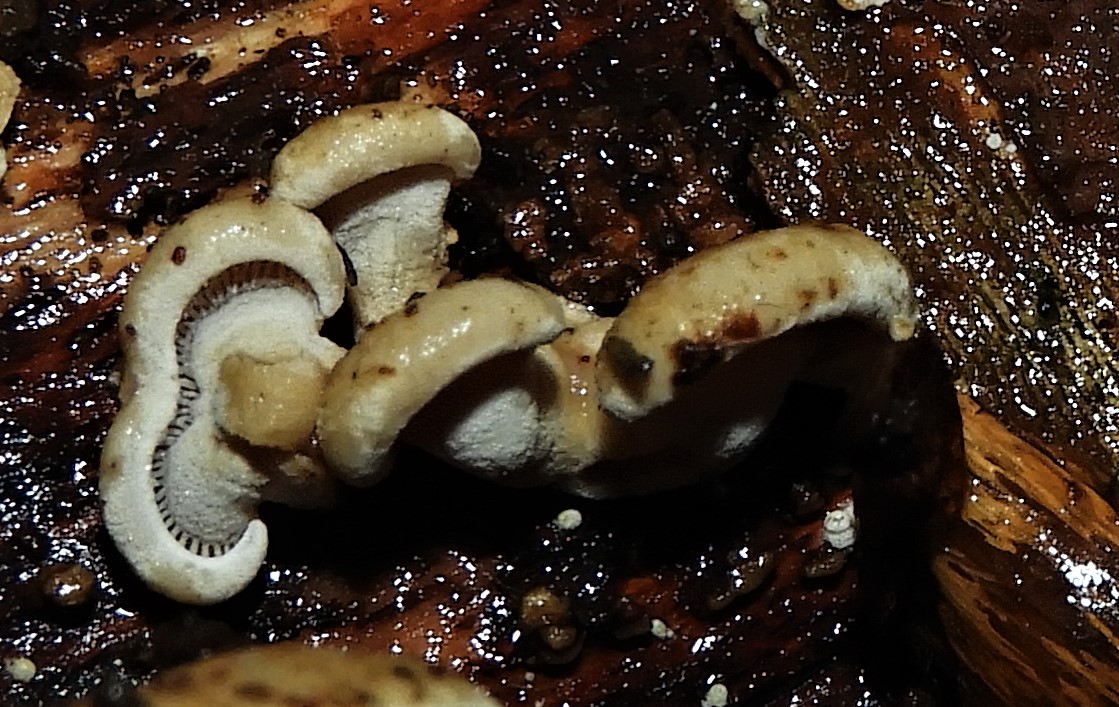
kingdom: Fungi
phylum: Basidiomycota
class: Agaricomycetes
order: Agaricales
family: Mycenaceae
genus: Panellus
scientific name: Panellus stipticus
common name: kliddet epaulethat
